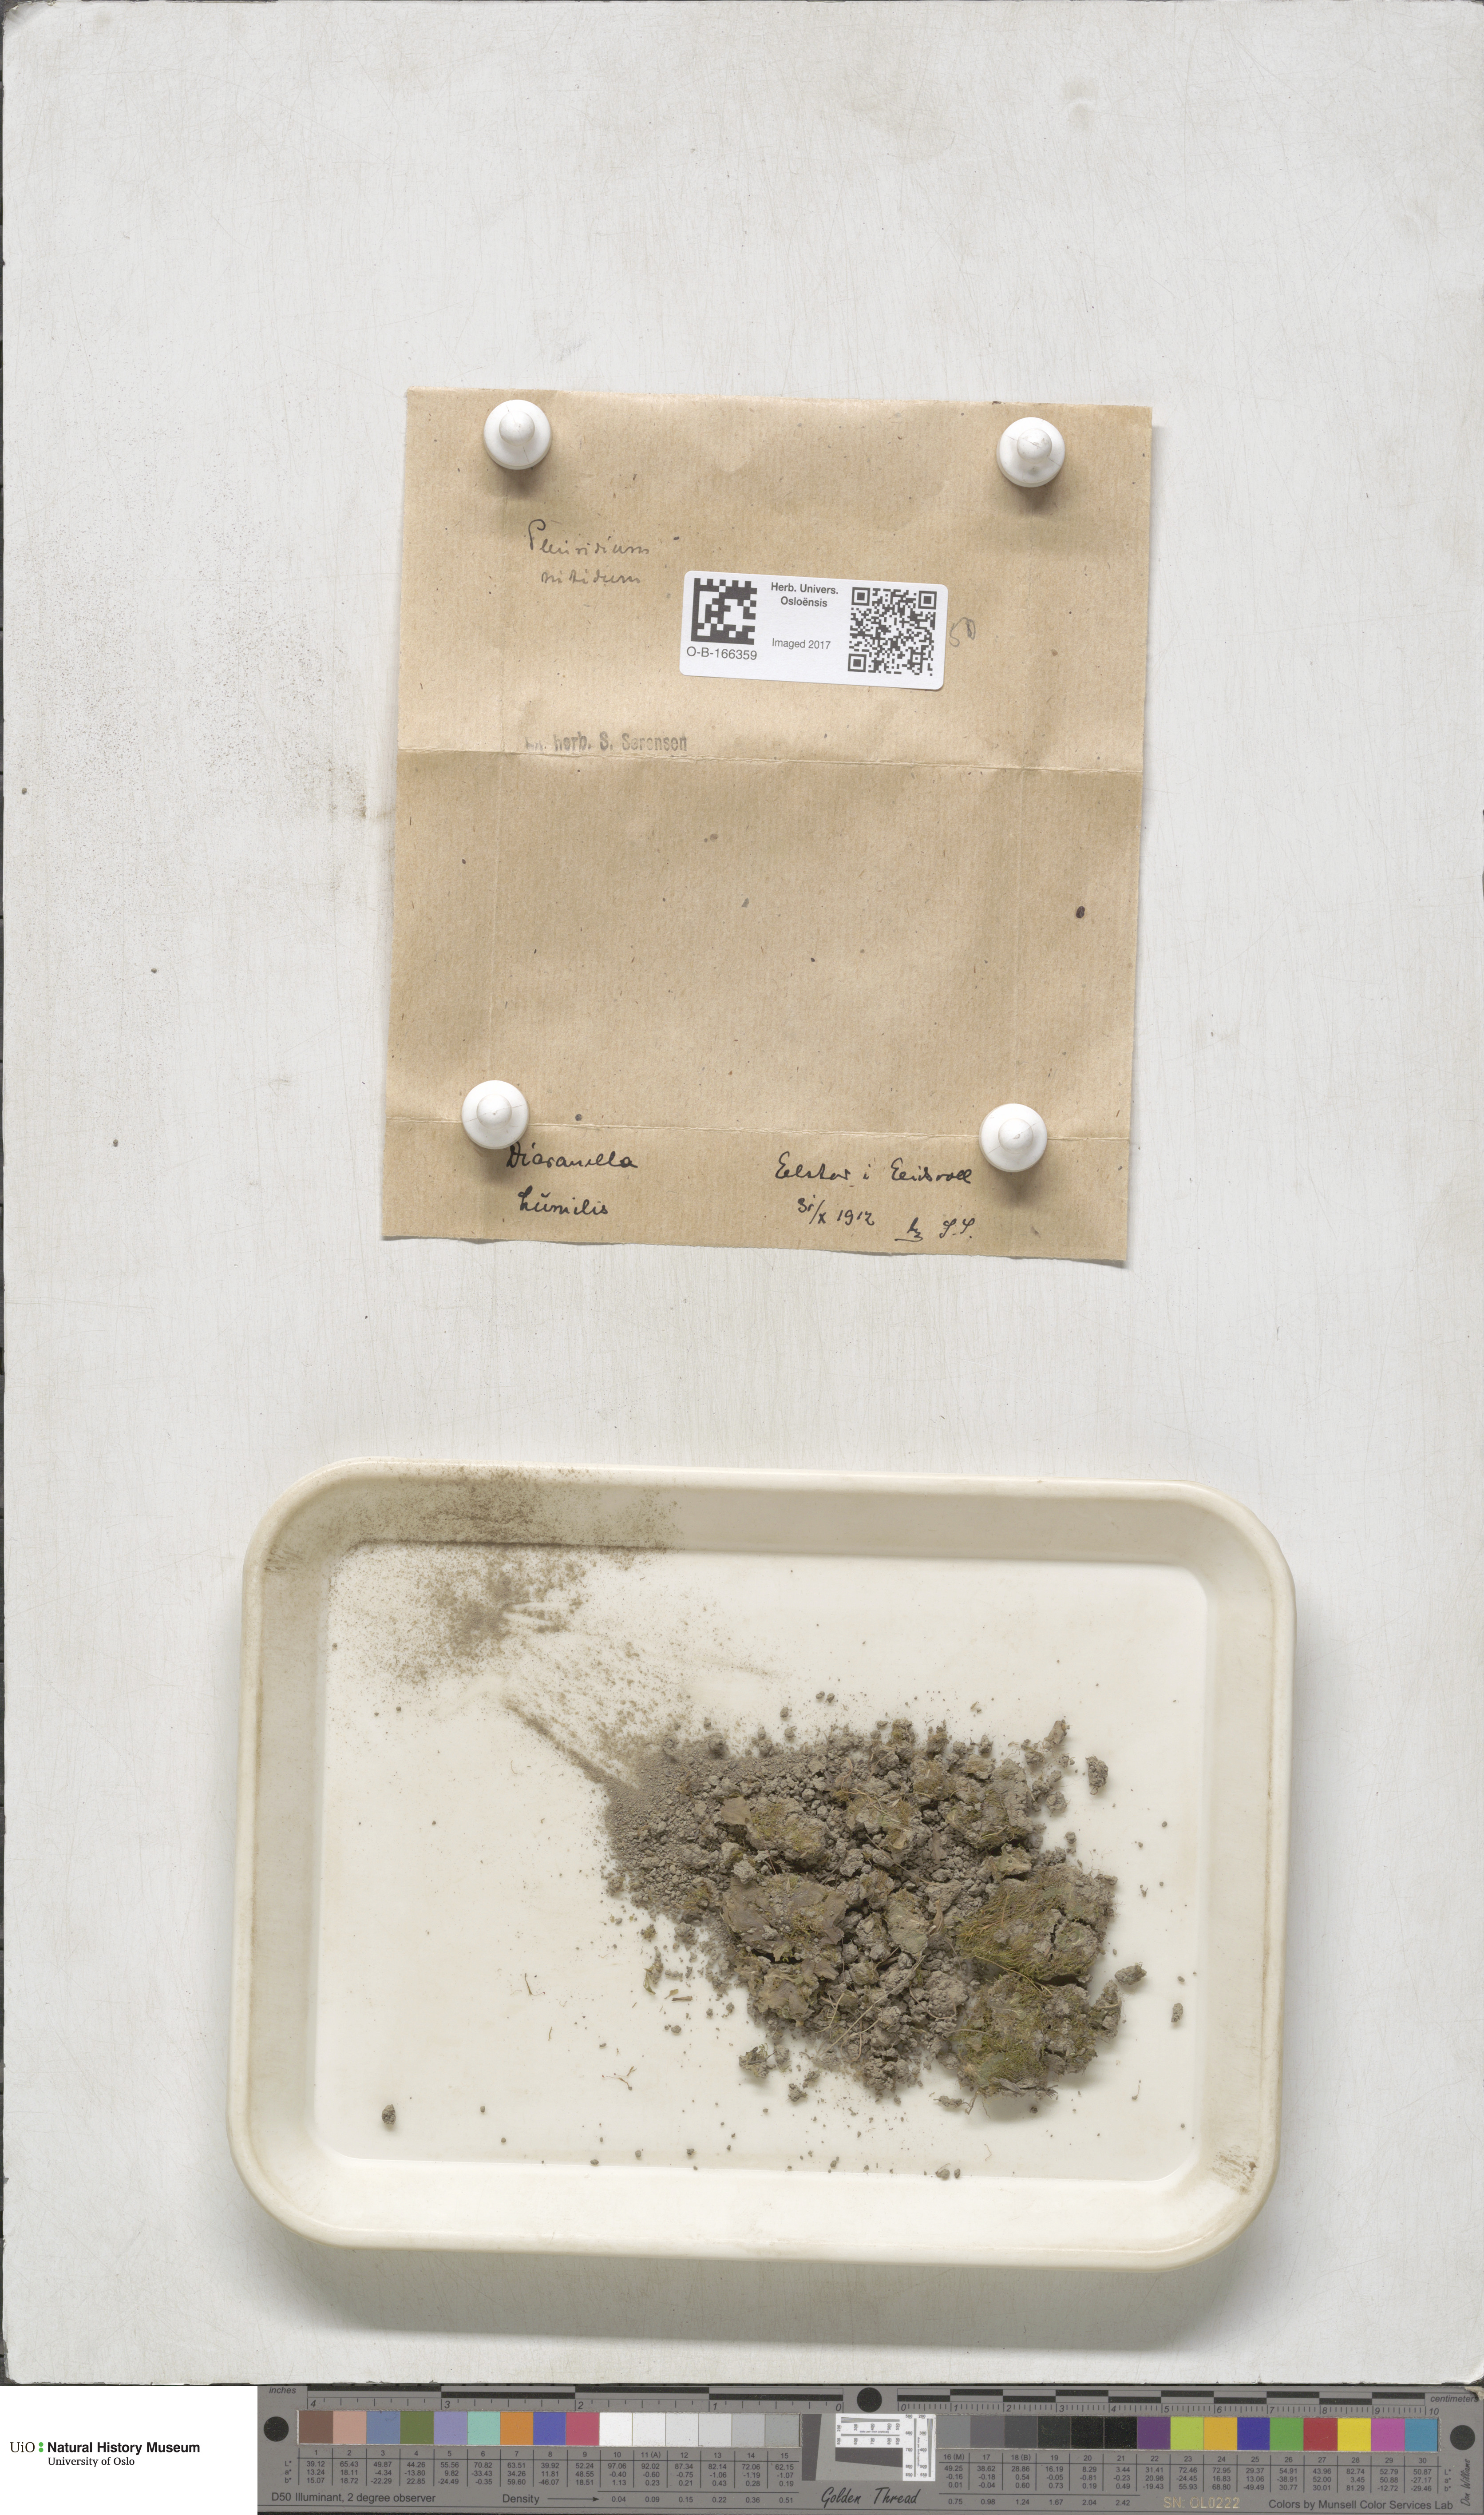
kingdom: Plantae
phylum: Bryophyta
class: Bryopsida
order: Dicranales
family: Ditrichaceae
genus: Pseudephemerum
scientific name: Pseudephemerum nitidum
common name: Delicate earth-moss
